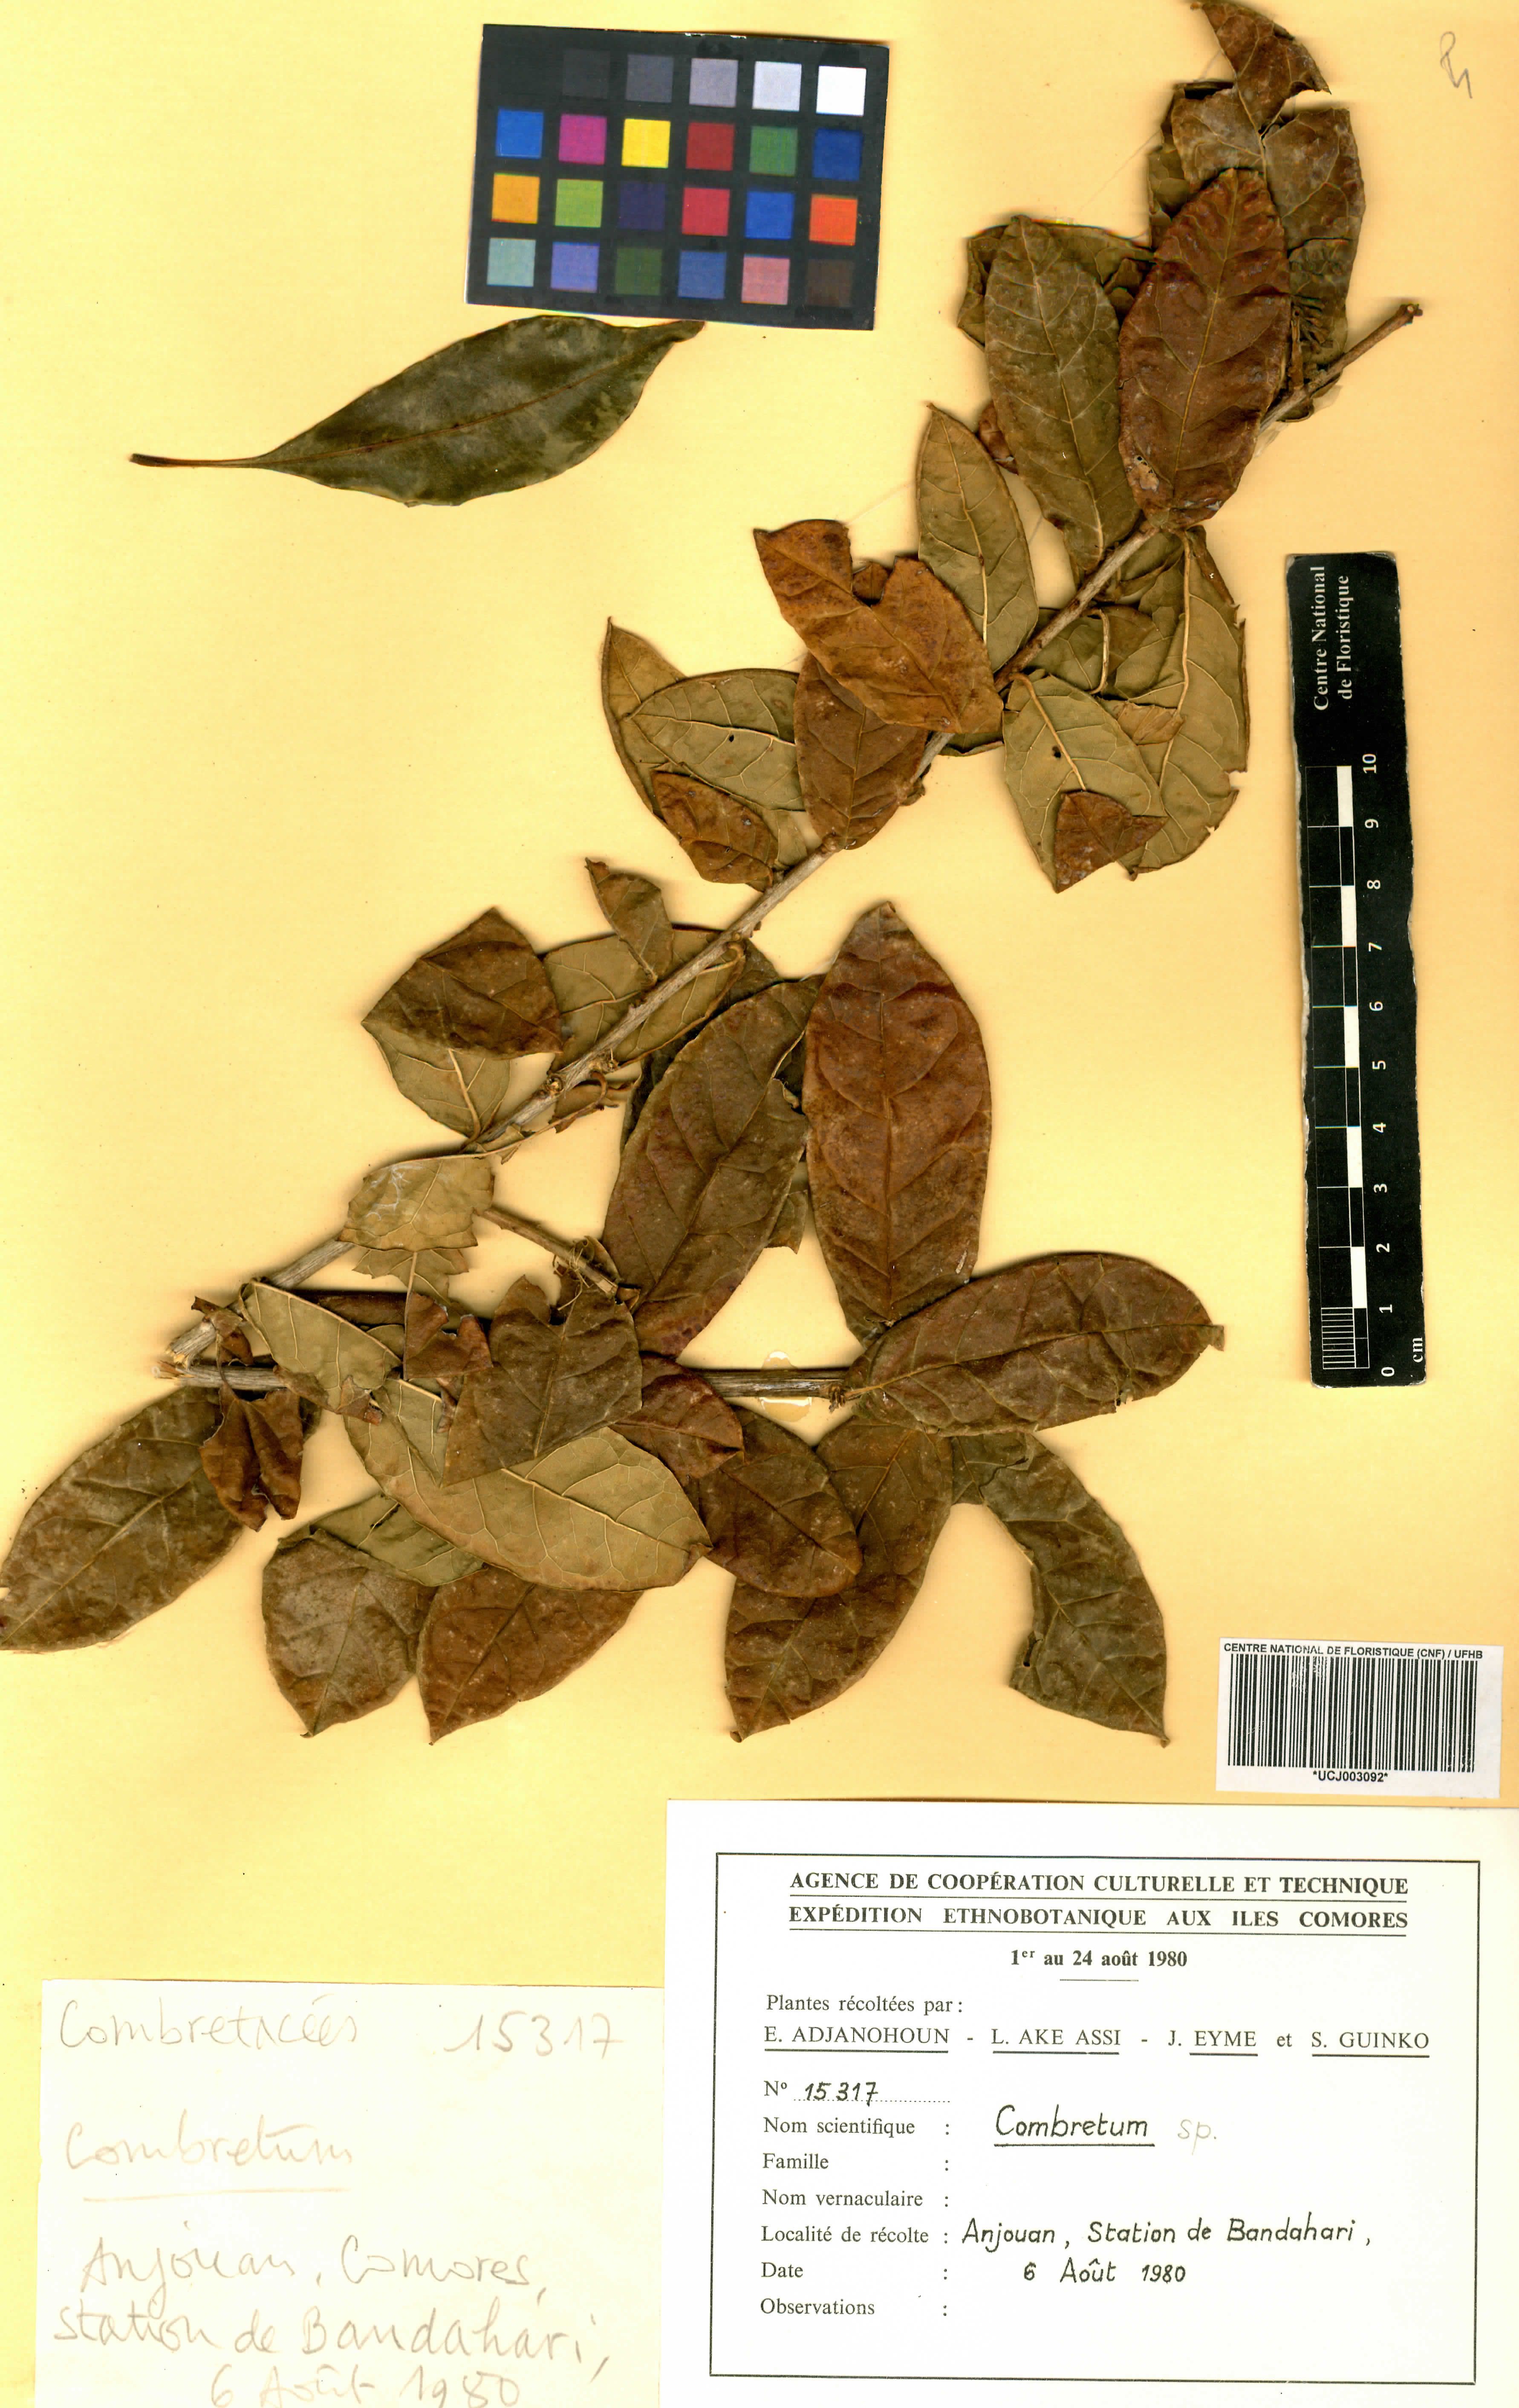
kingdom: Plantae
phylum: Tracheophyta
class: Magnoliopsida
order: Myrtales
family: Combretaceae
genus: Combretum
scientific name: Combretum
